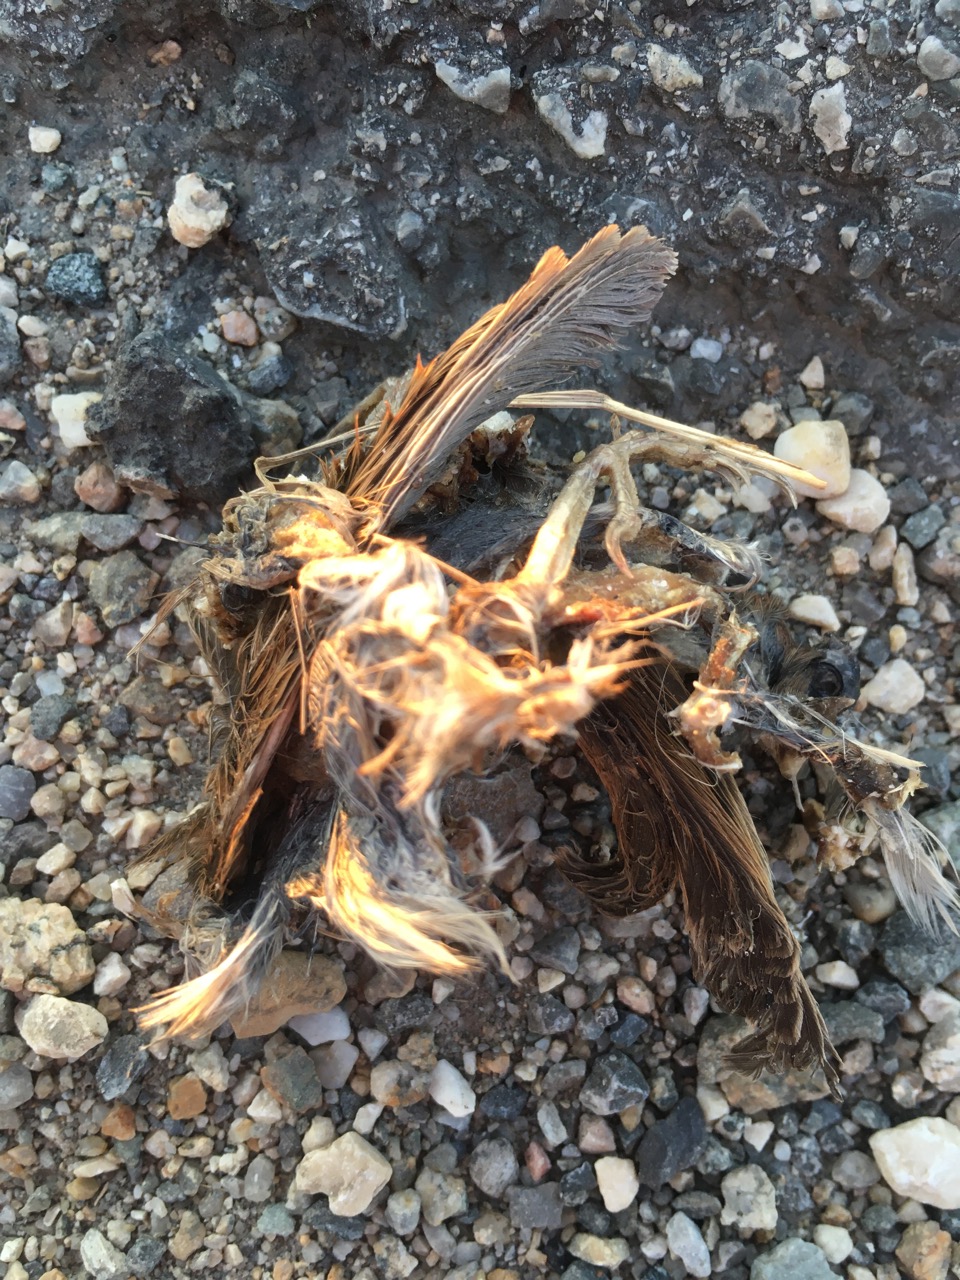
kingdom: Animalia
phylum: Chordata
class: Aves
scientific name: Aves
